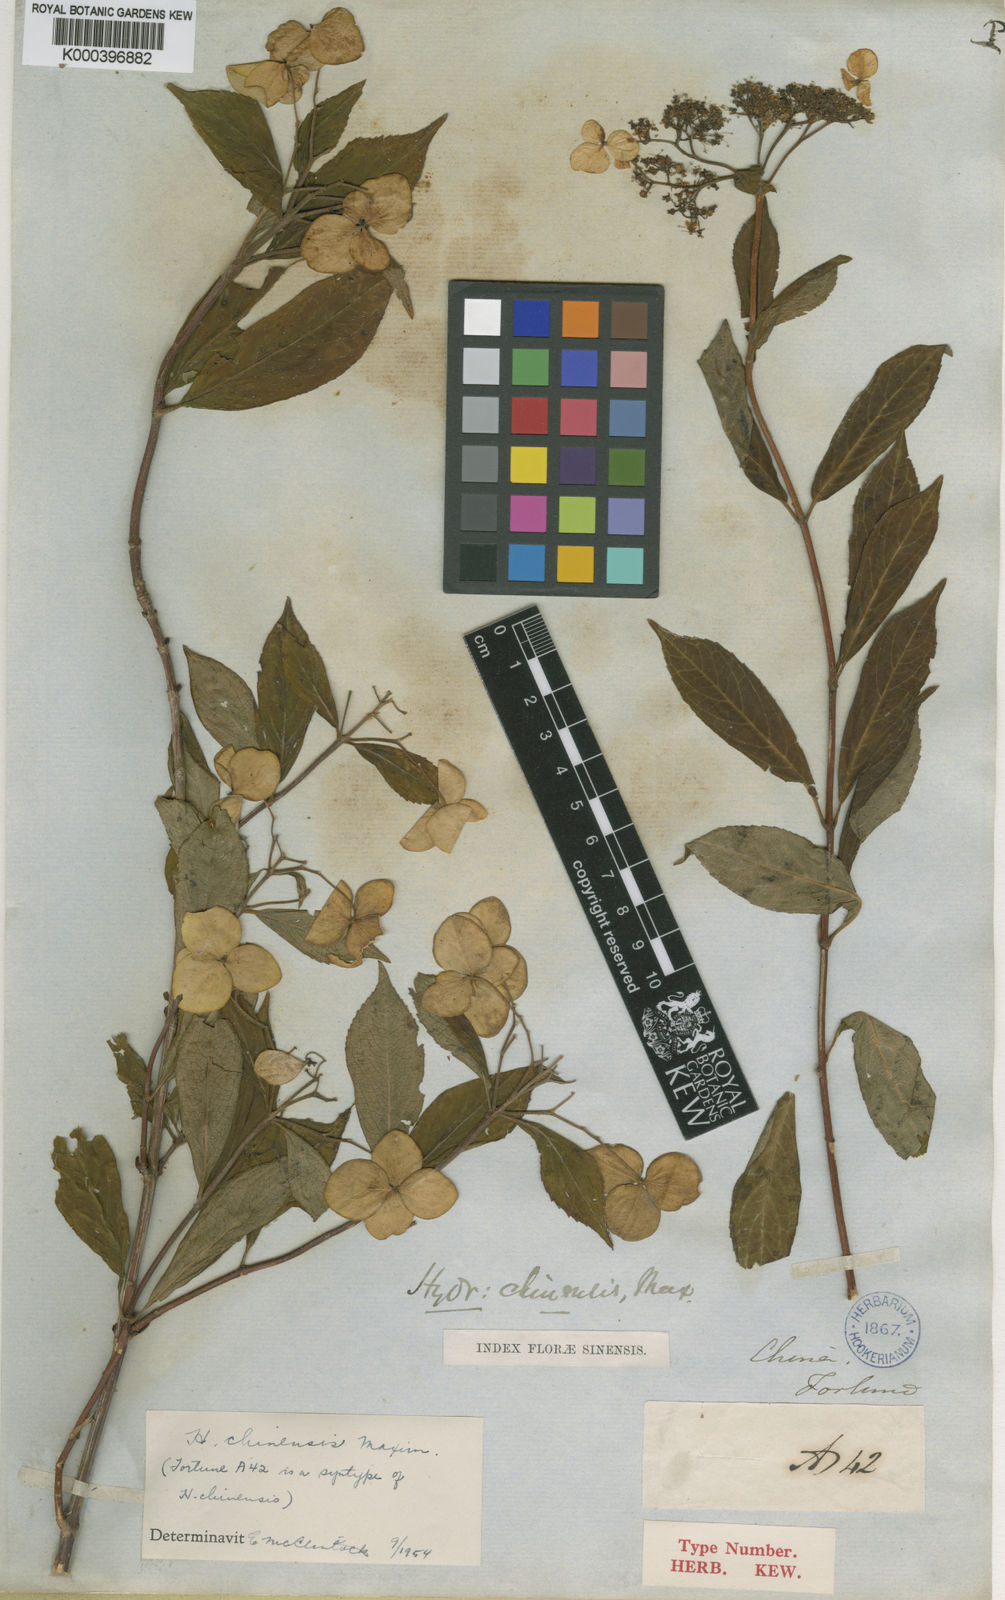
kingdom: Plantae
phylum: Tracheophyta
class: Magnoliopsida
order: Cornales
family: Hydrangeaceae
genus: Hydrangea
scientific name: Hydrangea chinensis
